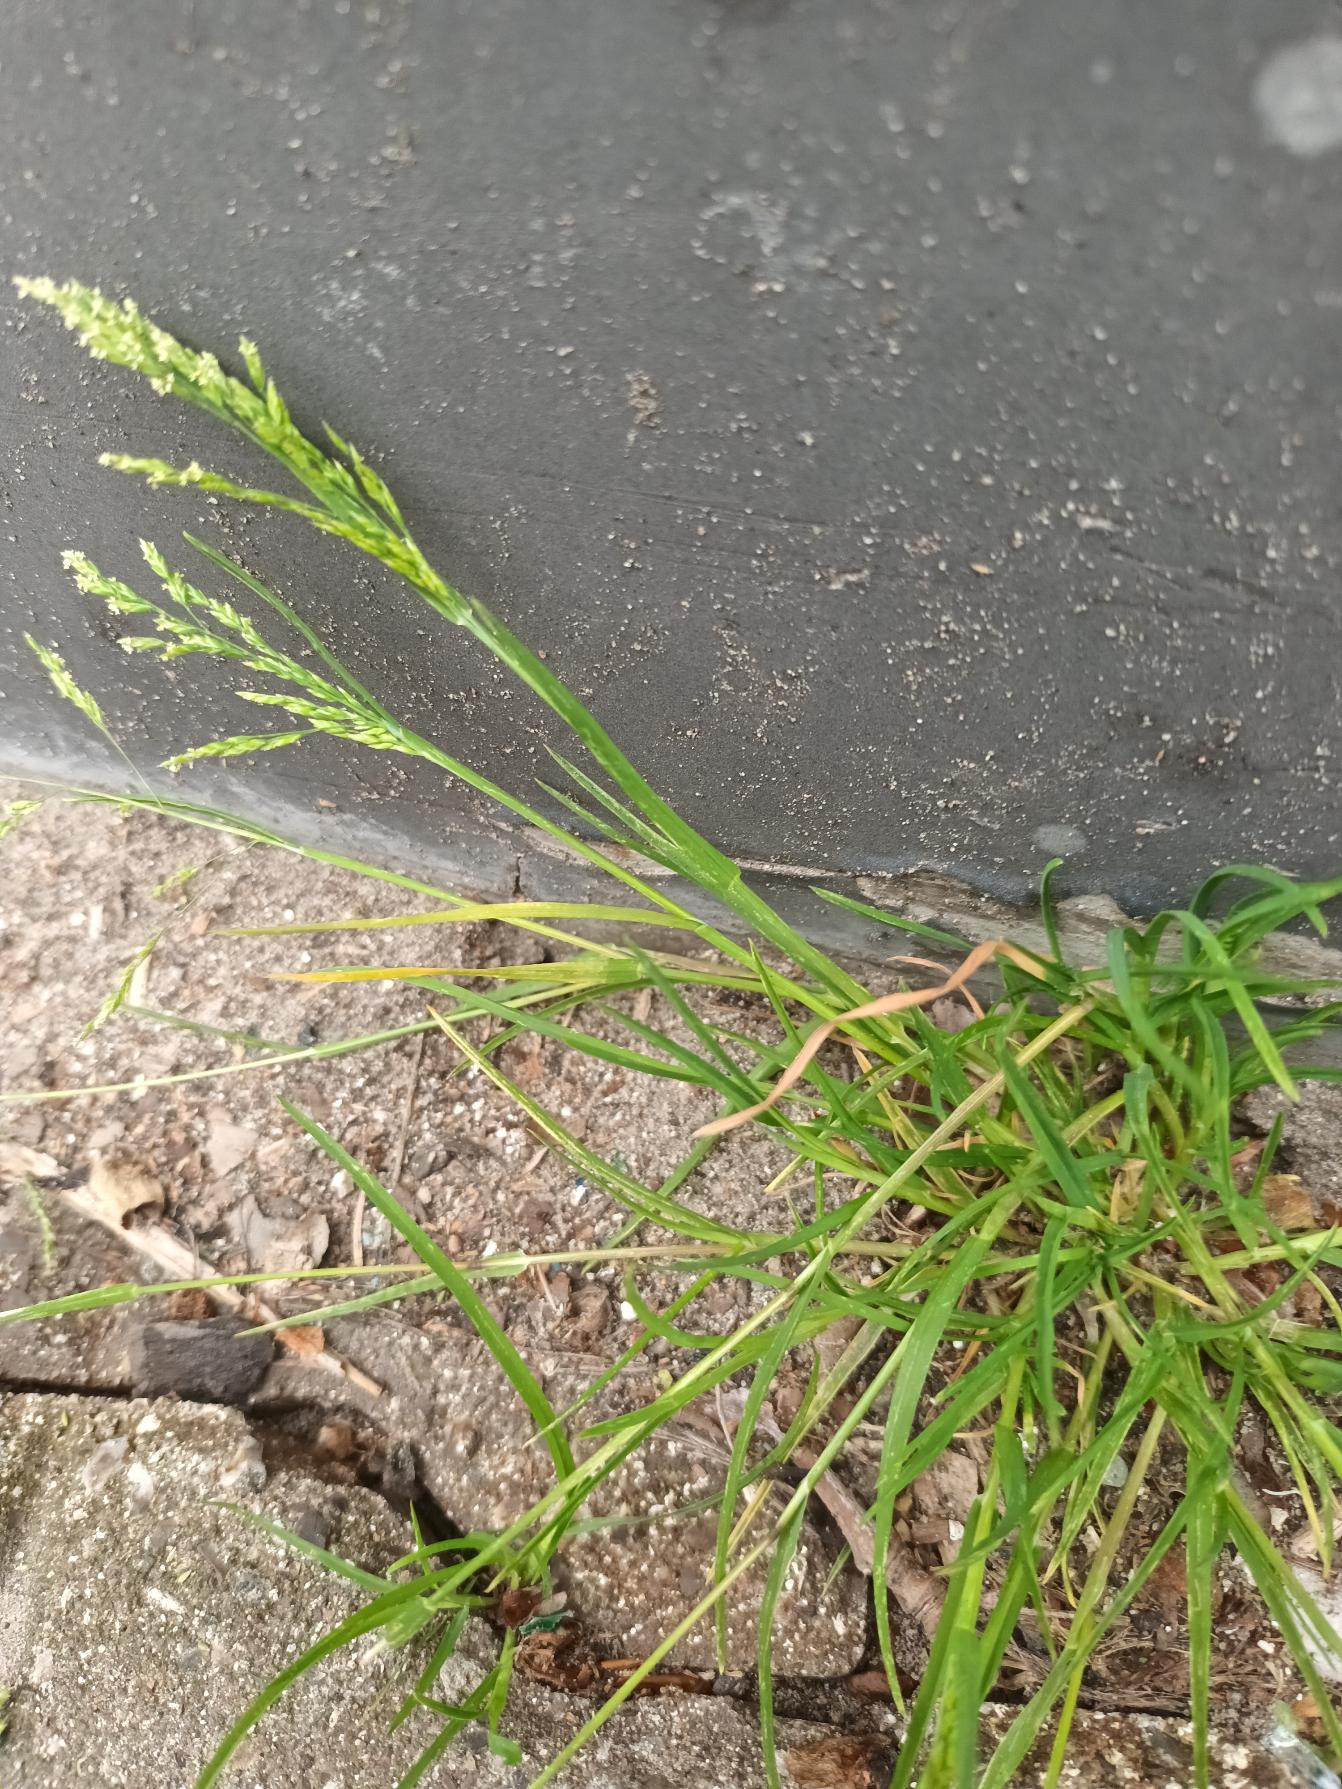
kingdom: Plantae
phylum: Tracheophyta
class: Liliopsida
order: Poales
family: Poaceae
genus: Poa
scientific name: Poa annua
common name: Enårig rapgræs
